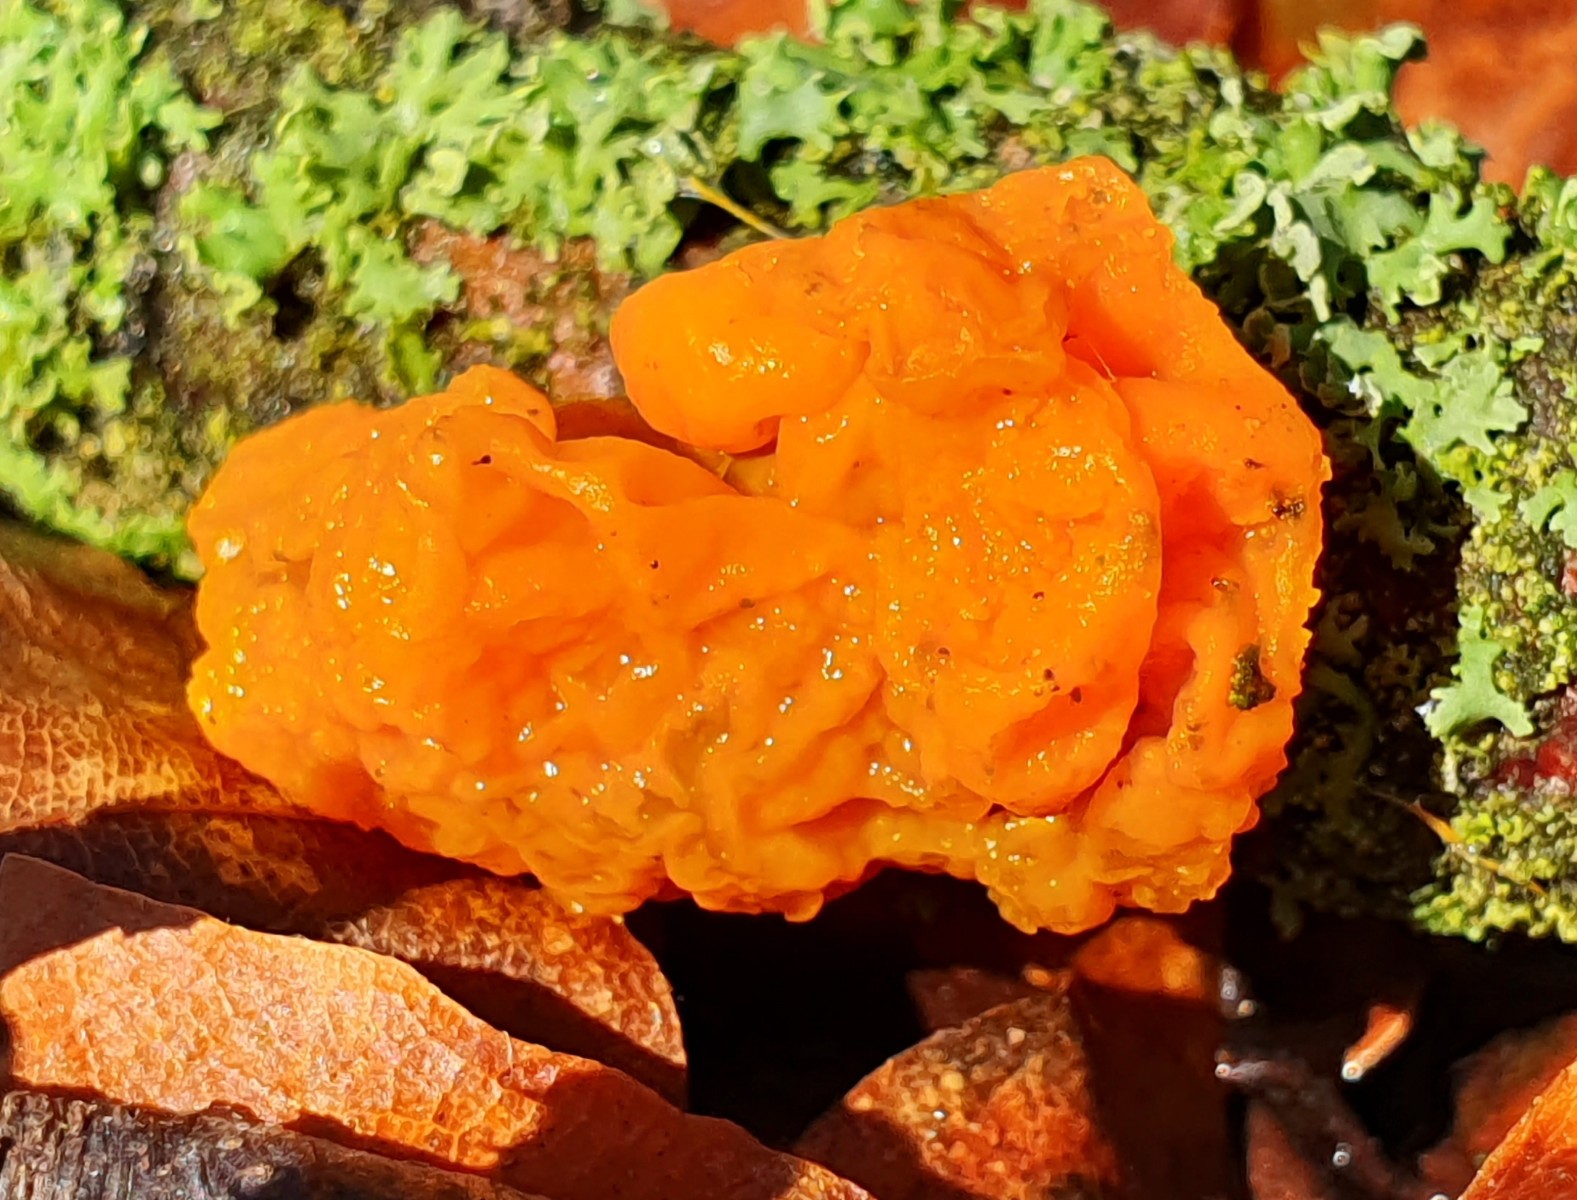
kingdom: Fungi
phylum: Basidiomycota
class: Tremellomycetes
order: Tremellales
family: Tremellaceae
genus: Tremella
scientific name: Tremella mesenterica
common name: gul bævresvamp
